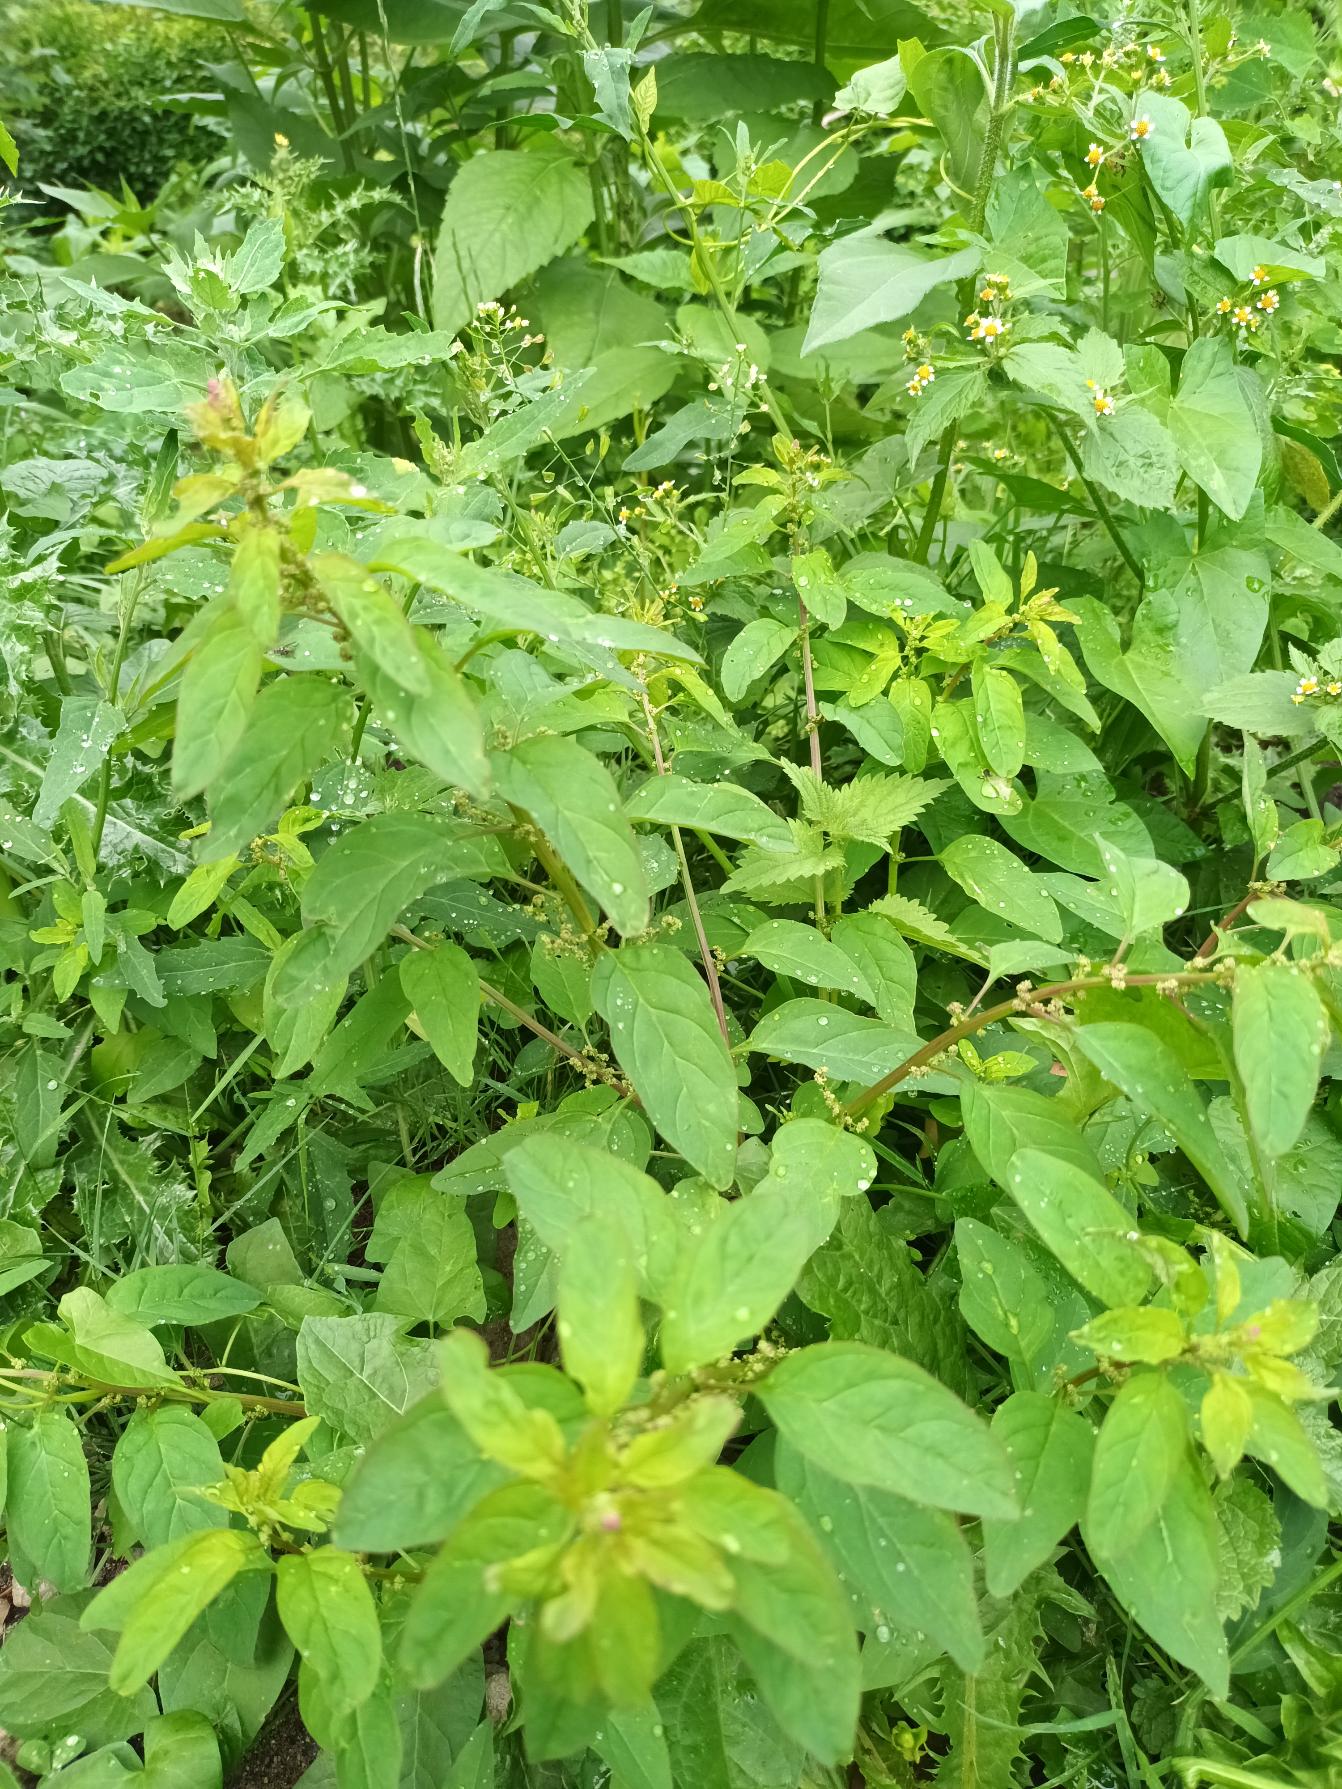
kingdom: Plantae
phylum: Tracheophyta
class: Magnoliopsida
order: Caryophyllales
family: Amaranthaceae
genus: Lipandra
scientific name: Lipandra polysperma
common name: Mangefrøet gåsefod
